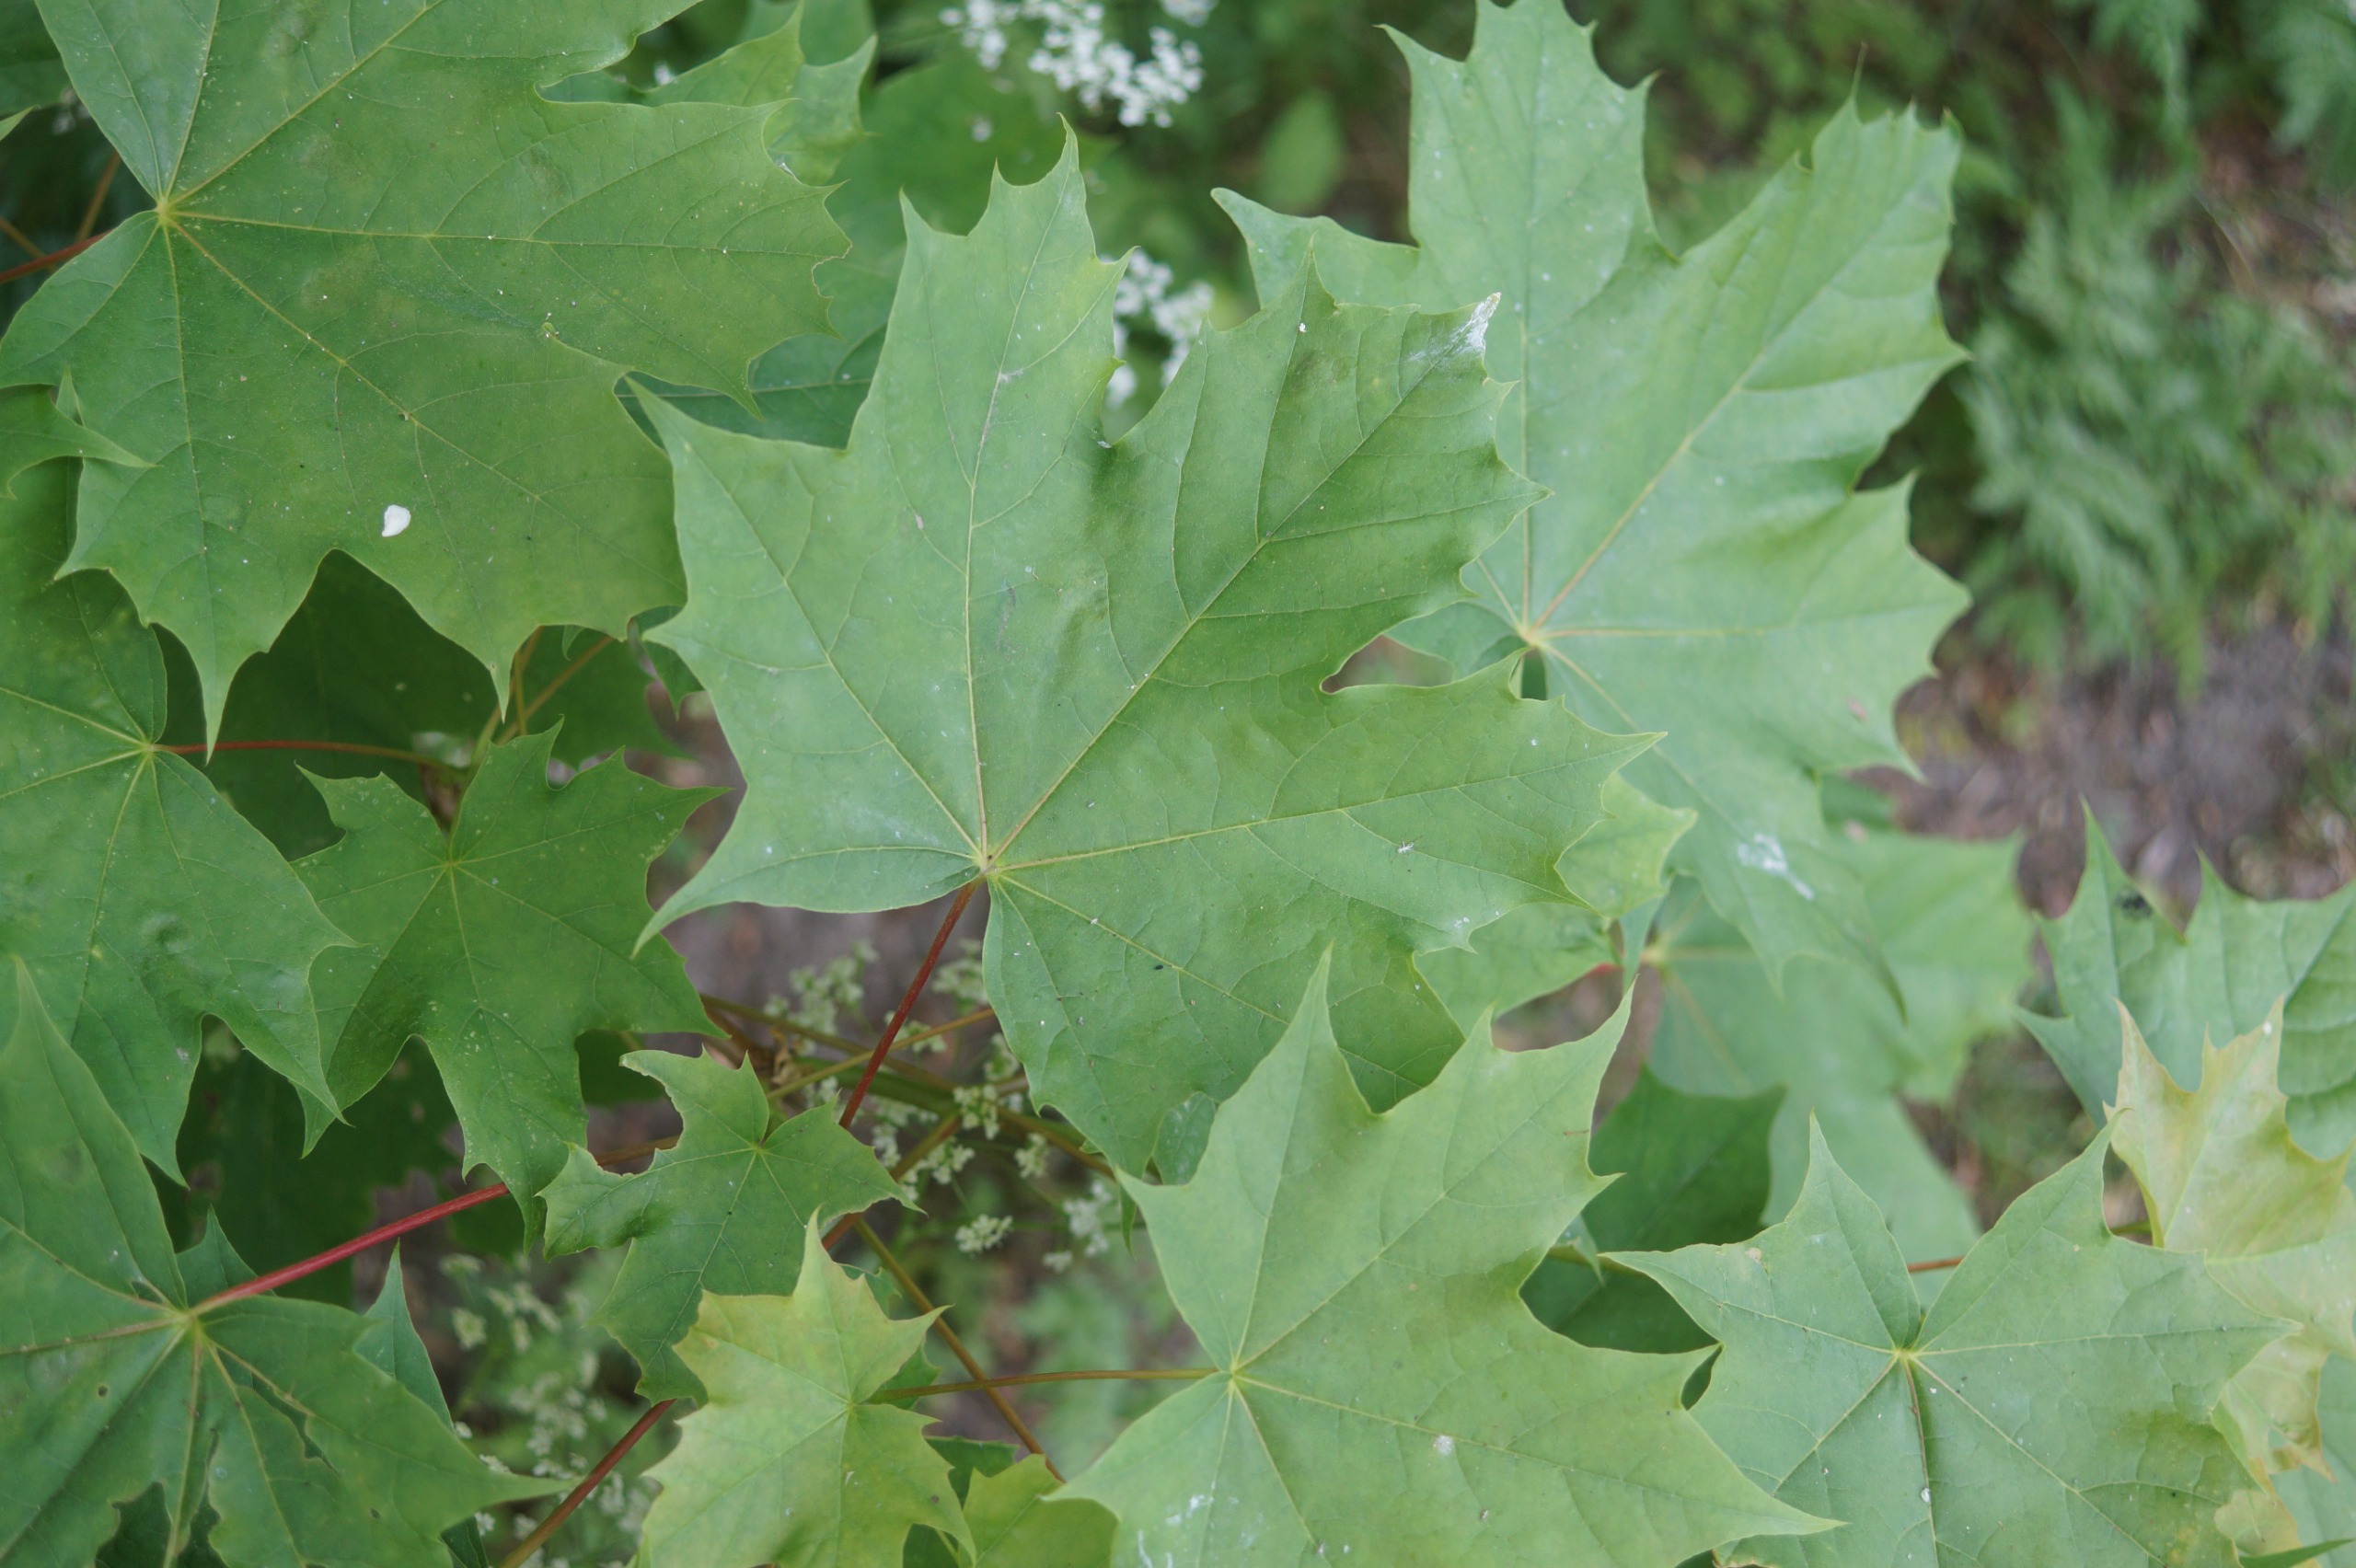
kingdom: Plantae
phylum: Tracheophyta
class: Magnoliopsida
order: Sapindales
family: Sapindaceae
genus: Acer
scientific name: Acer platanoides
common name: Spids-løn
